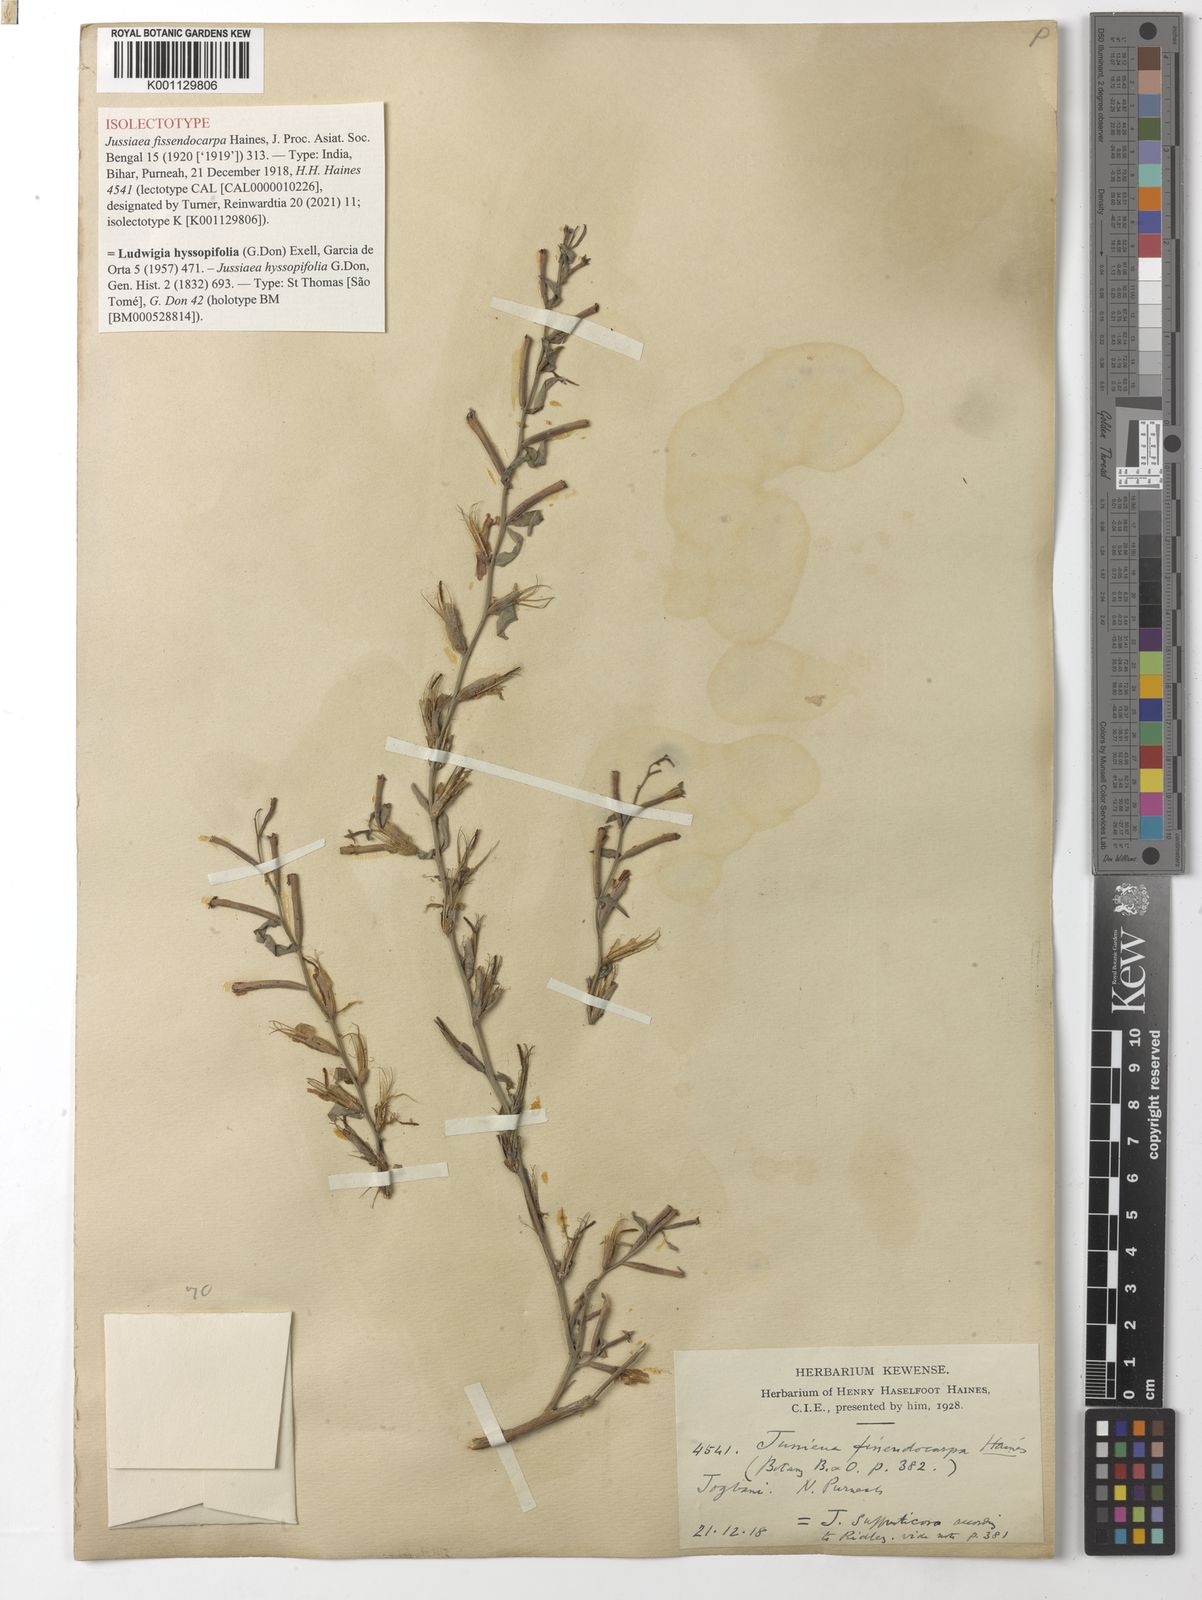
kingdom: Plantae
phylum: Tracheophyta
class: Magnoliopsida
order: Myrtales
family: Onagraceae
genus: Ludwigia
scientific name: Ludwigia hyssopifolia
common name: Linear leaf water primrose
